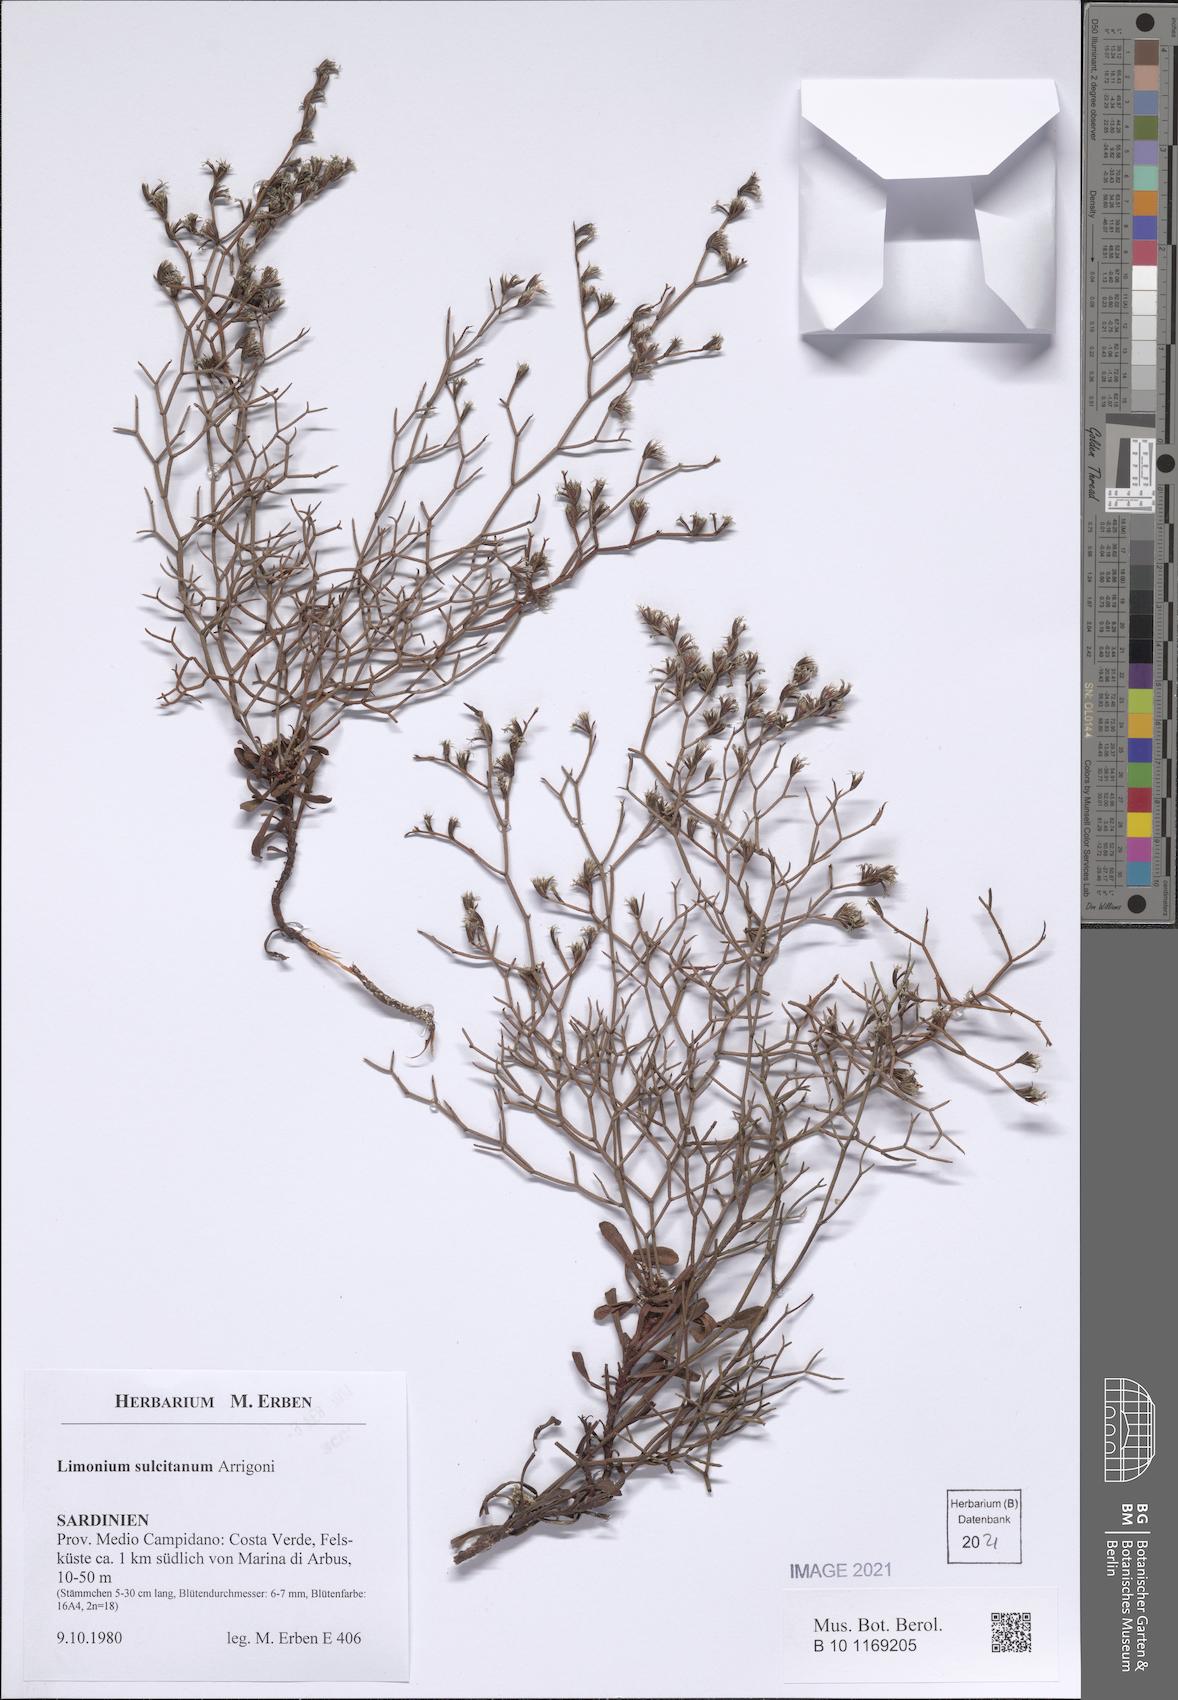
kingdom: Plantae
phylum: Tracheophyta
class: Magnoliopsida
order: Caryophyllales
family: Plumbaginaceae
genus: Limonium
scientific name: Limonium sulcitanum
